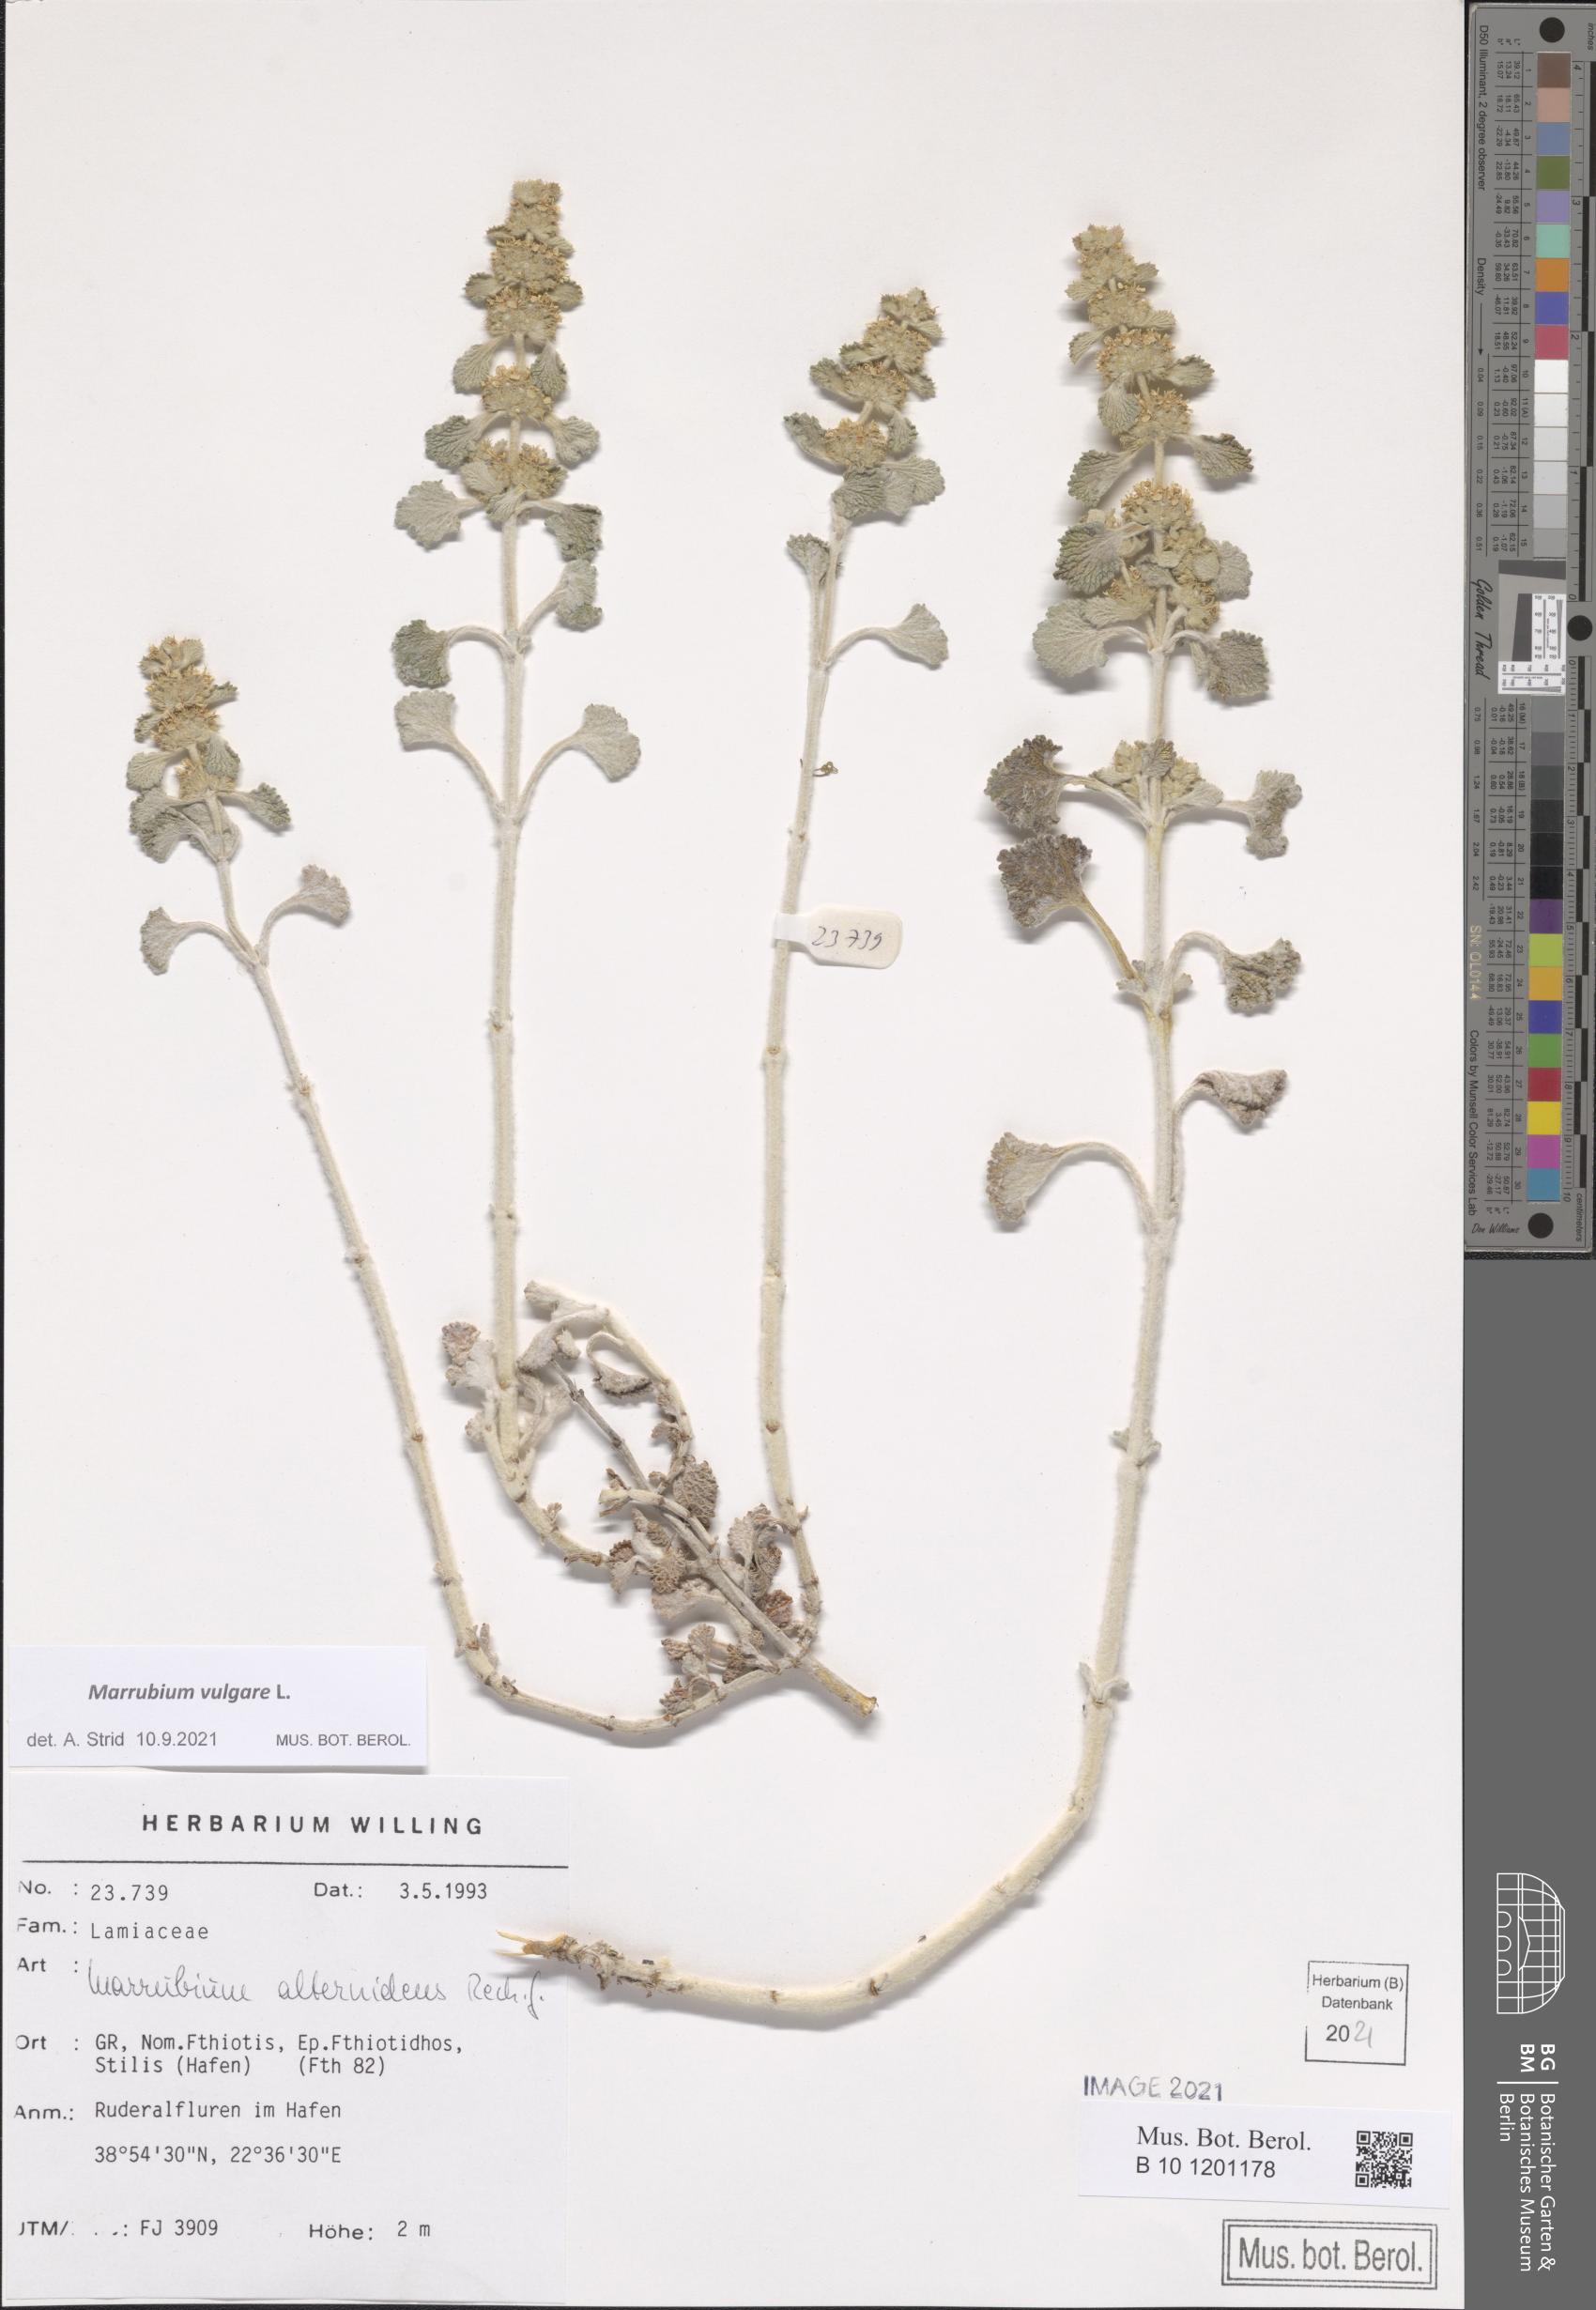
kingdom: Plantae
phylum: Tracheophyta
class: Magnoliopsida
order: Lamiales
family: Lamiaceae
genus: Marrubium
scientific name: Marrubium vulgare
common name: Horehound
